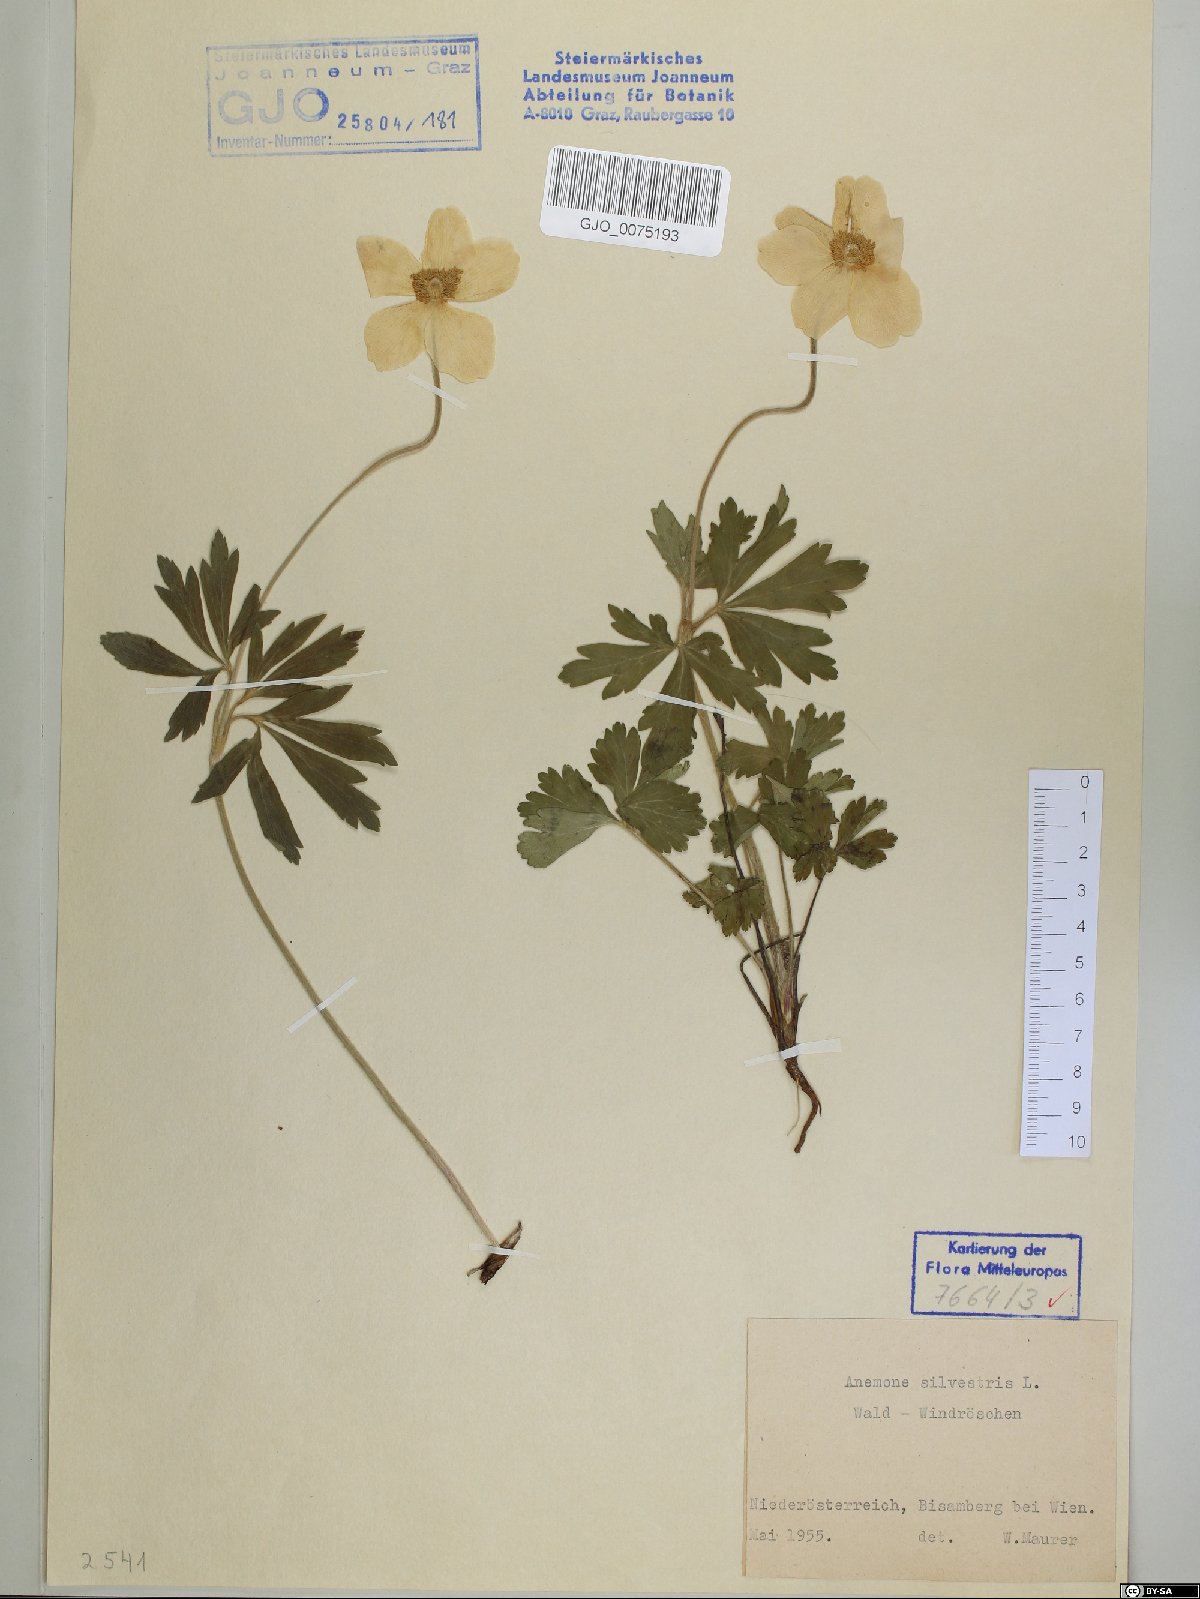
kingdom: Plantae
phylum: Tracheophyta
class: Magnoliopsida
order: Ranunculales
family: Ranunculaceae
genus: Anemone
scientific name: Anemone sylvestris
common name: Snowdrop anemone
